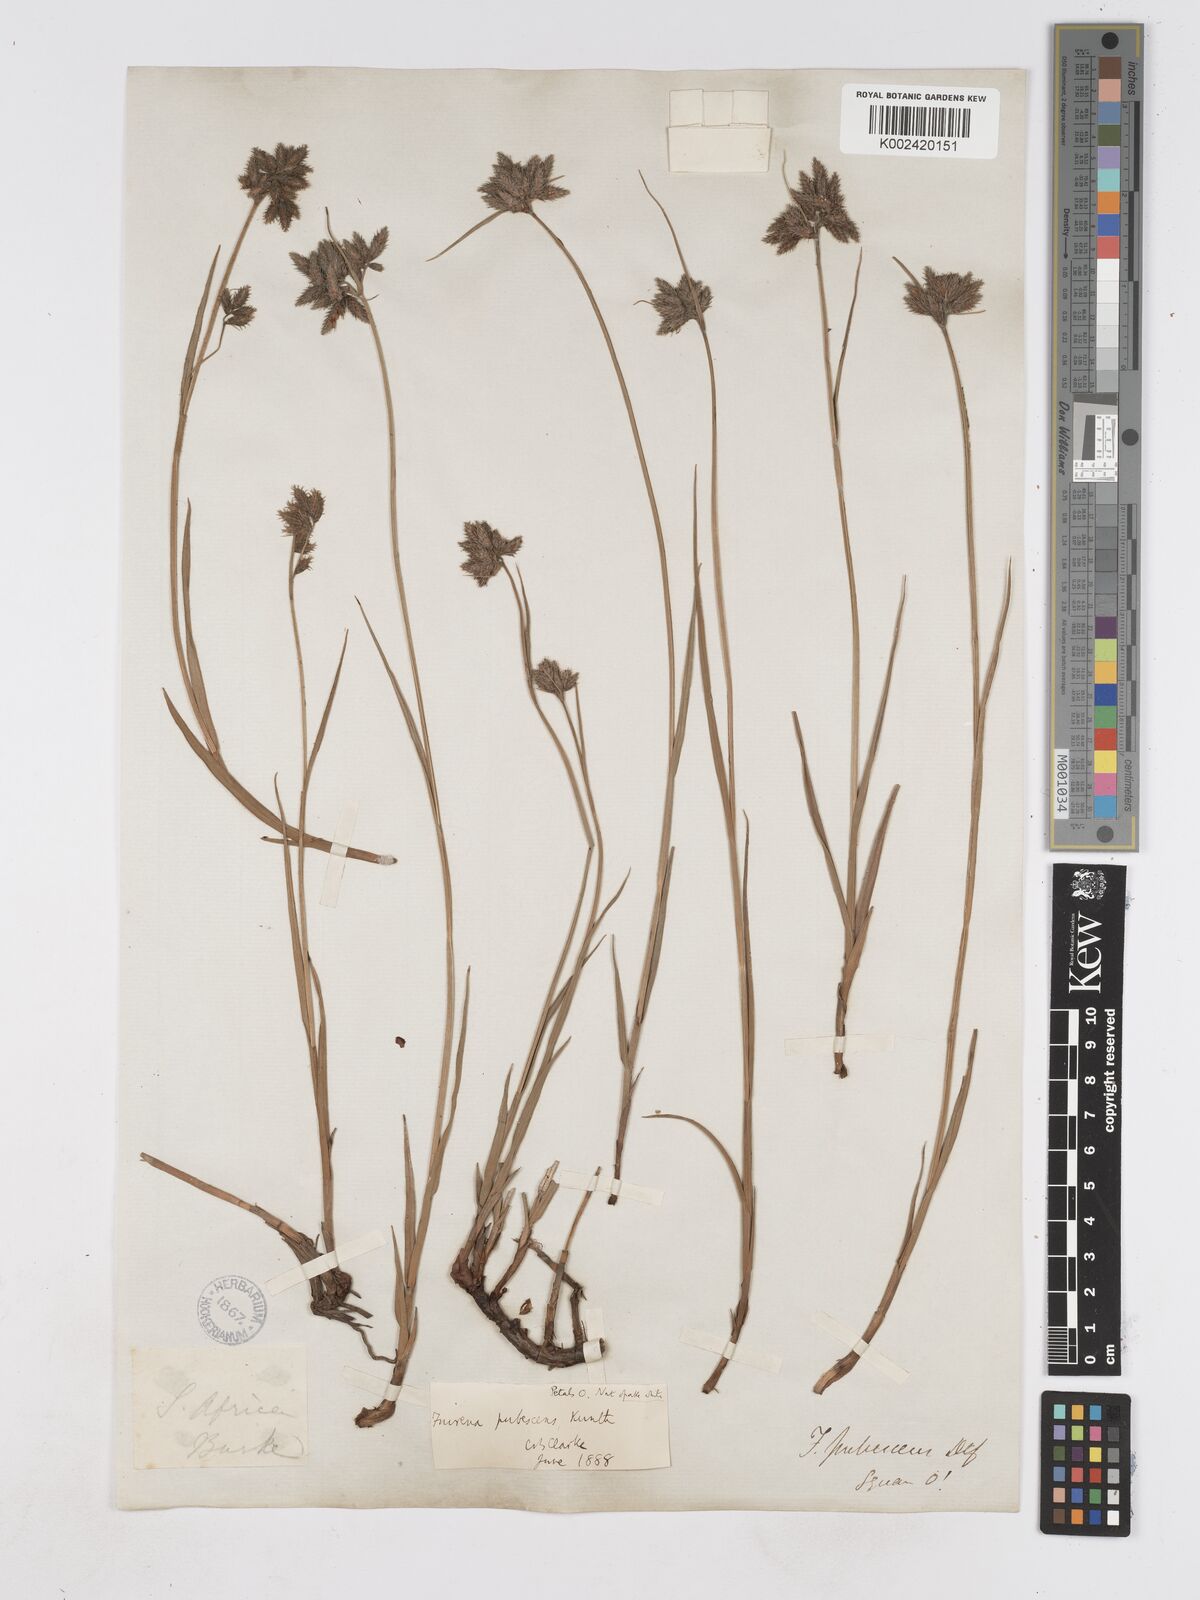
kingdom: Plantae
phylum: Tracheophyta
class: Liliopsida
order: Poales
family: Cyperaceae
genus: Fuirena
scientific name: Fuirena pubescens
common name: Hairy sedge
